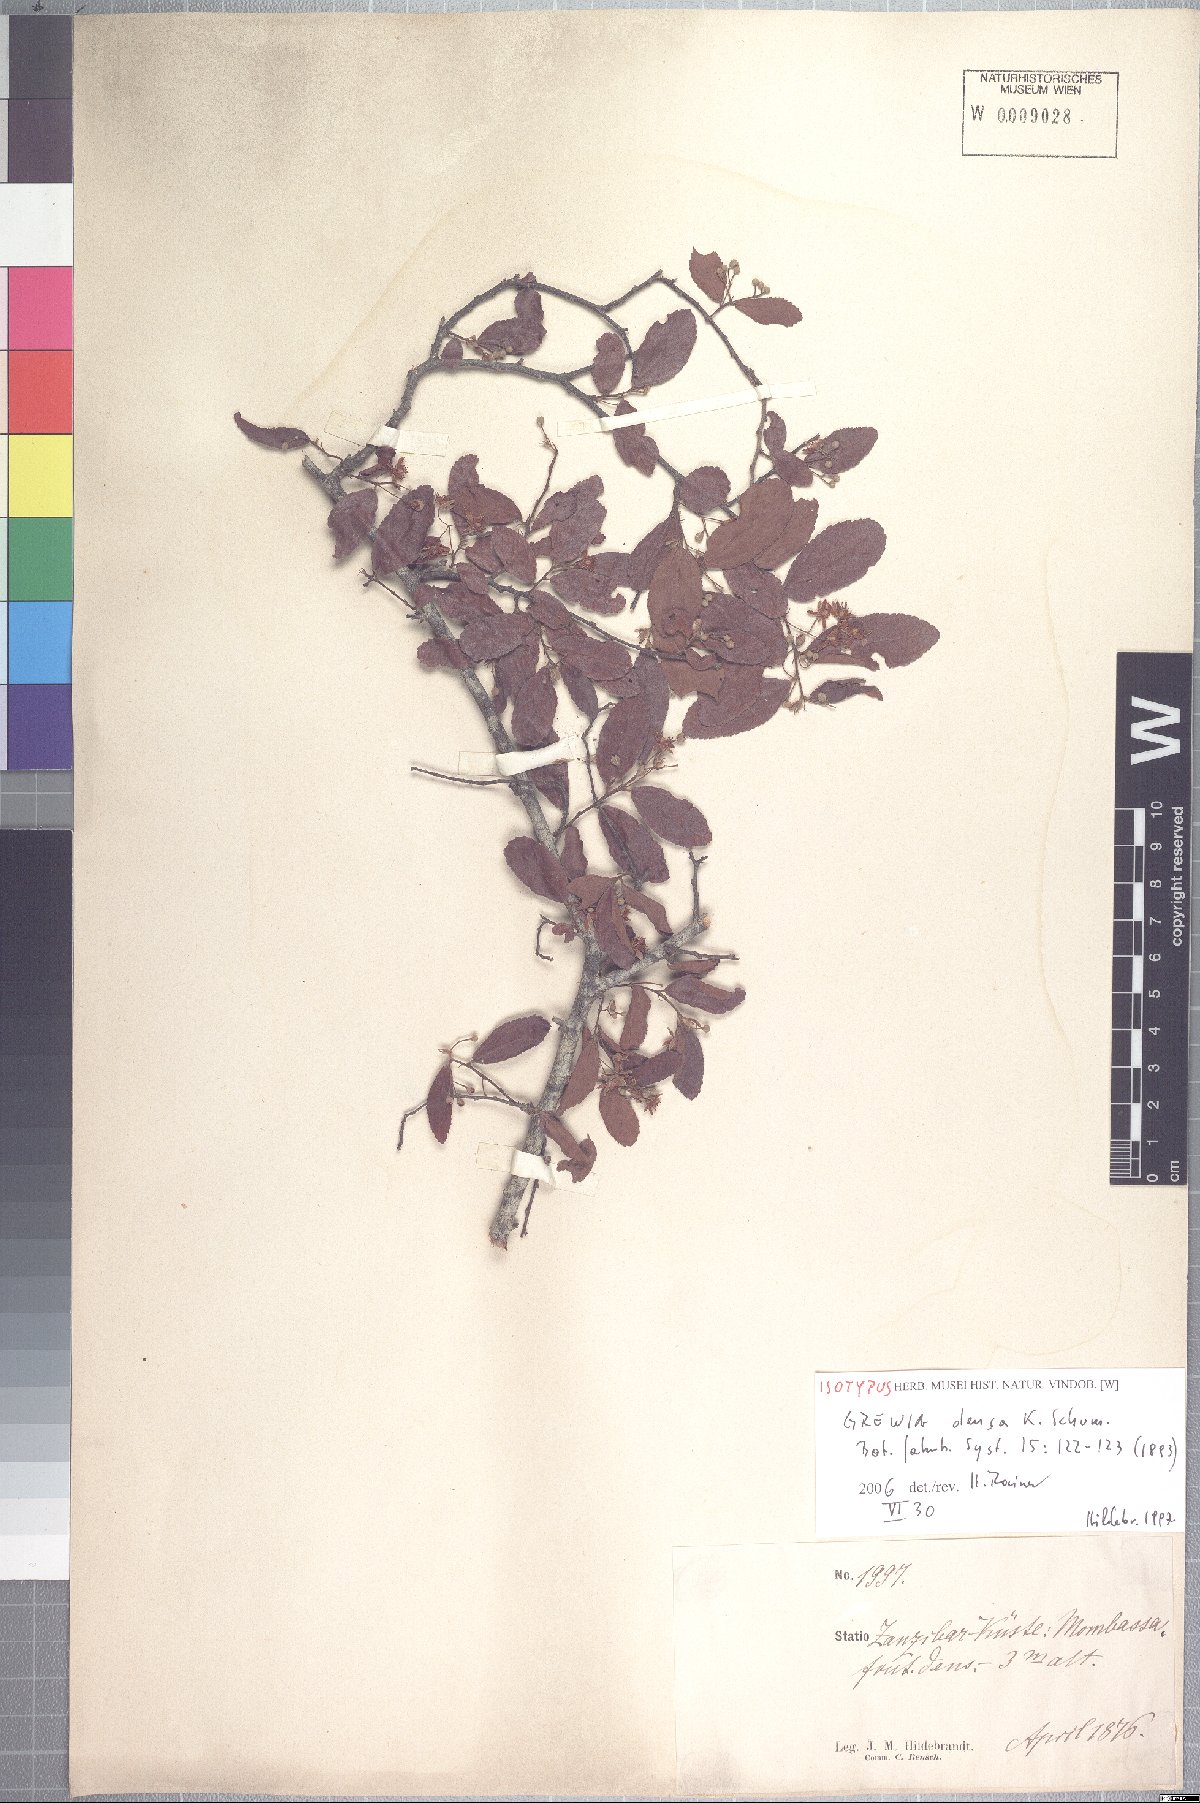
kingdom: Plantae
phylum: Tracheophyta
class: Magnoliopsida
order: Malvales
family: Malvaceae
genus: Grewia
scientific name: Grewia densa
